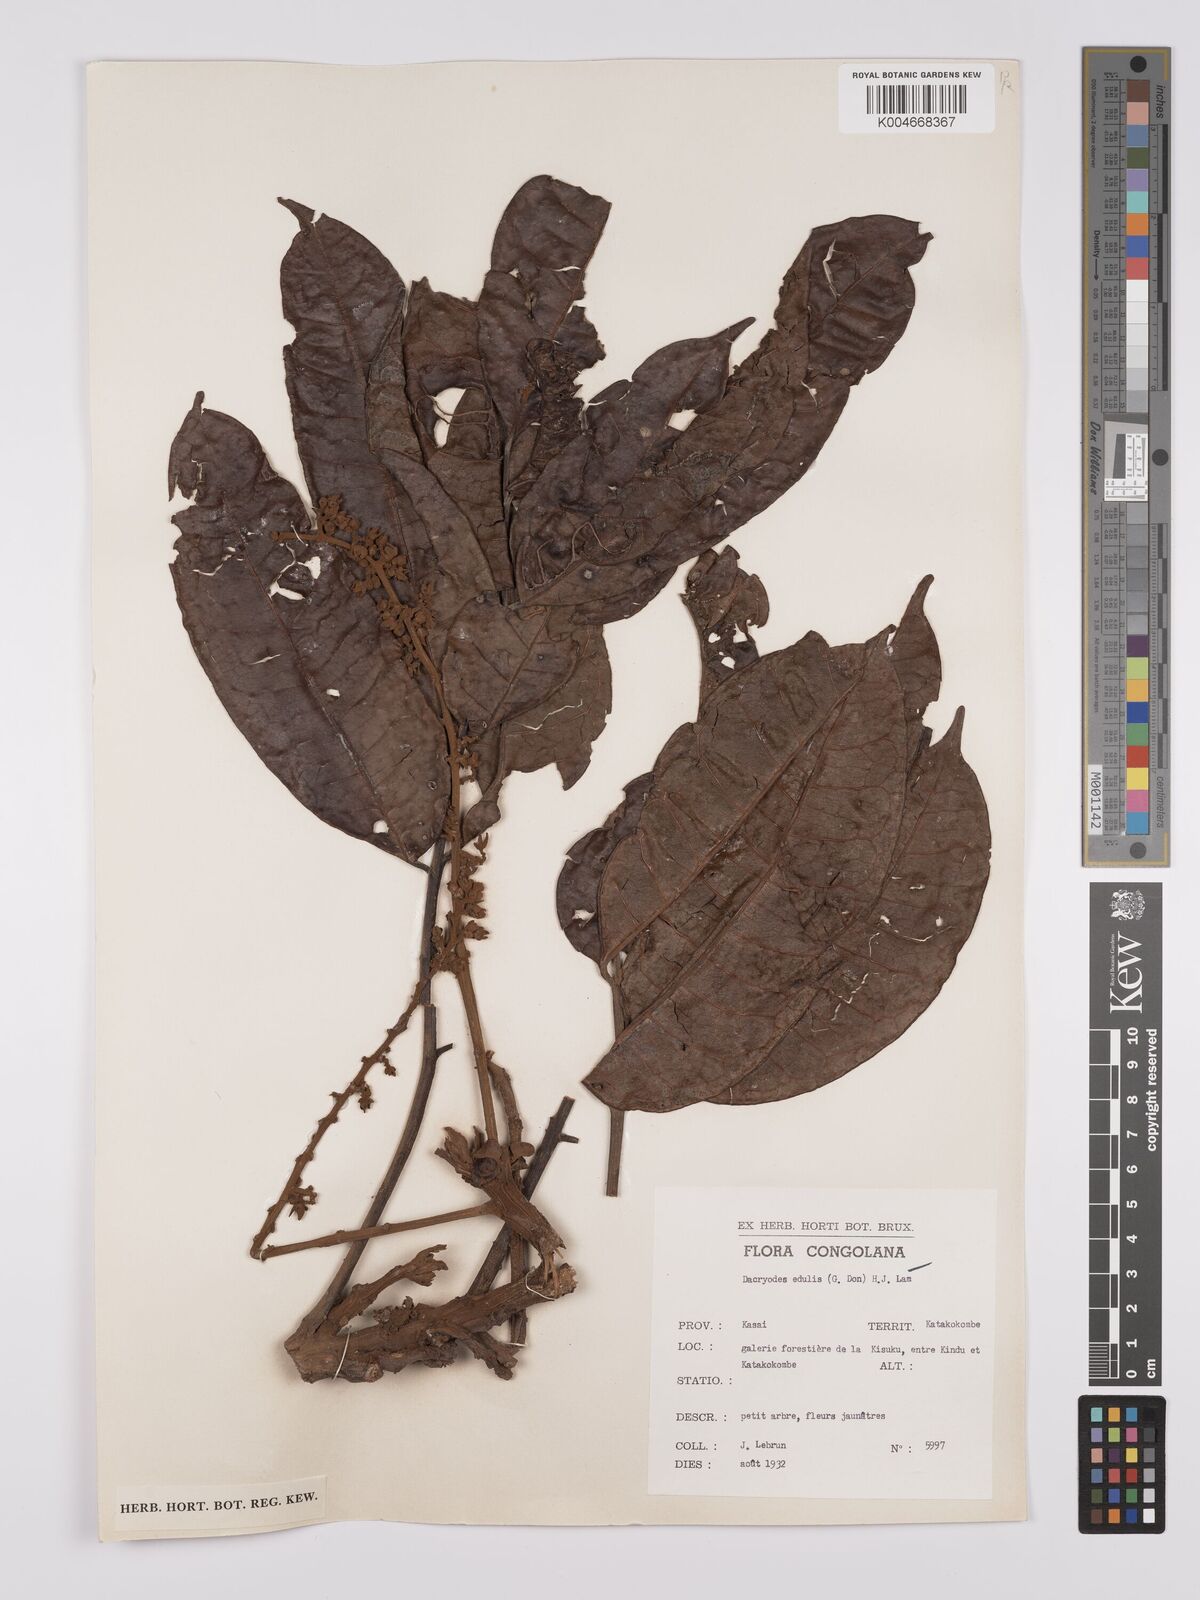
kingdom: Plantae
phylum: Tracheophyta
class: Magnoliopsida
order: Sapindales
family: Burseraceae
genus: Pachylobus
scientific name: Pachylobus edulis
